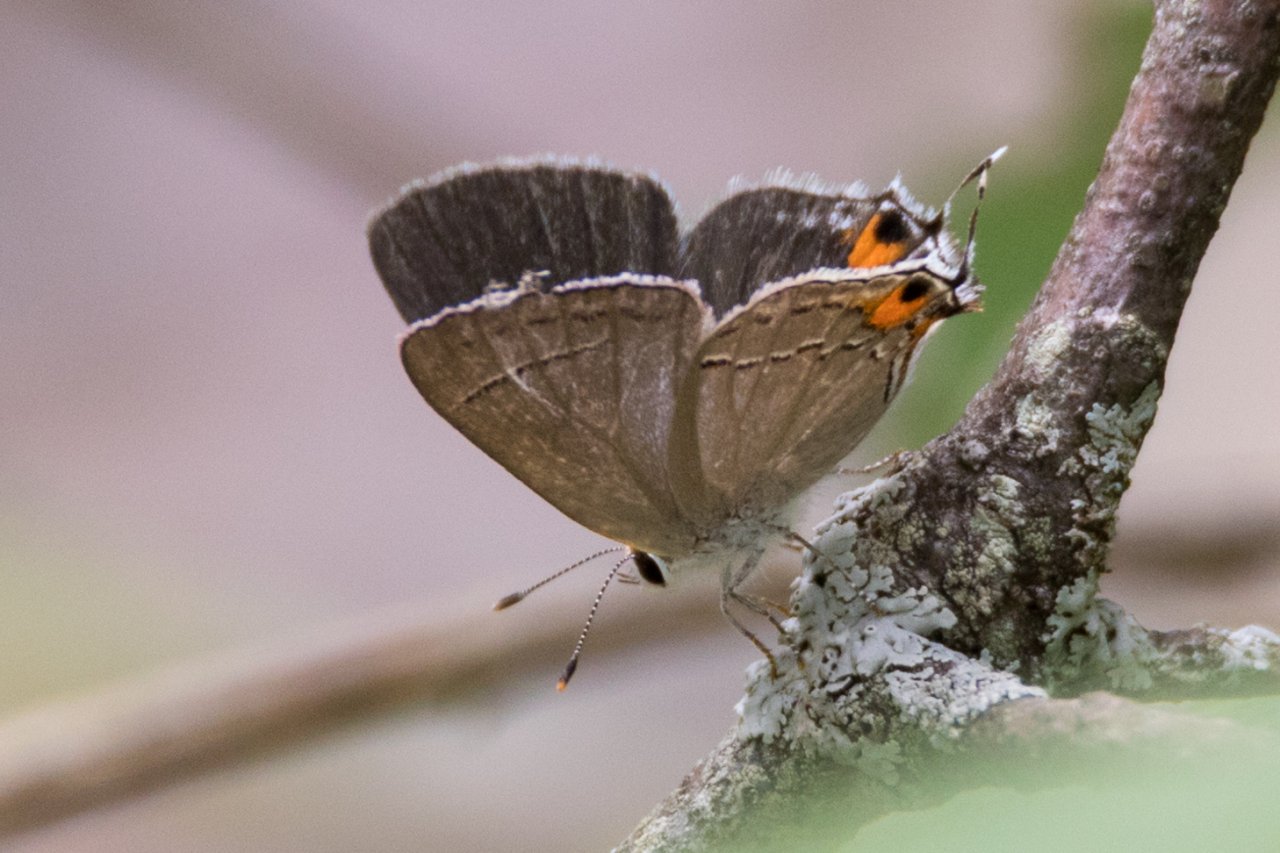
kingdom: Animalia
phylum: Arthropoda
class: Insecta
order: Lepidoptera
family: Lycaenidae
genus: Strymon
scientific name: Strymon melinus
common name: Gray Hairstreak
